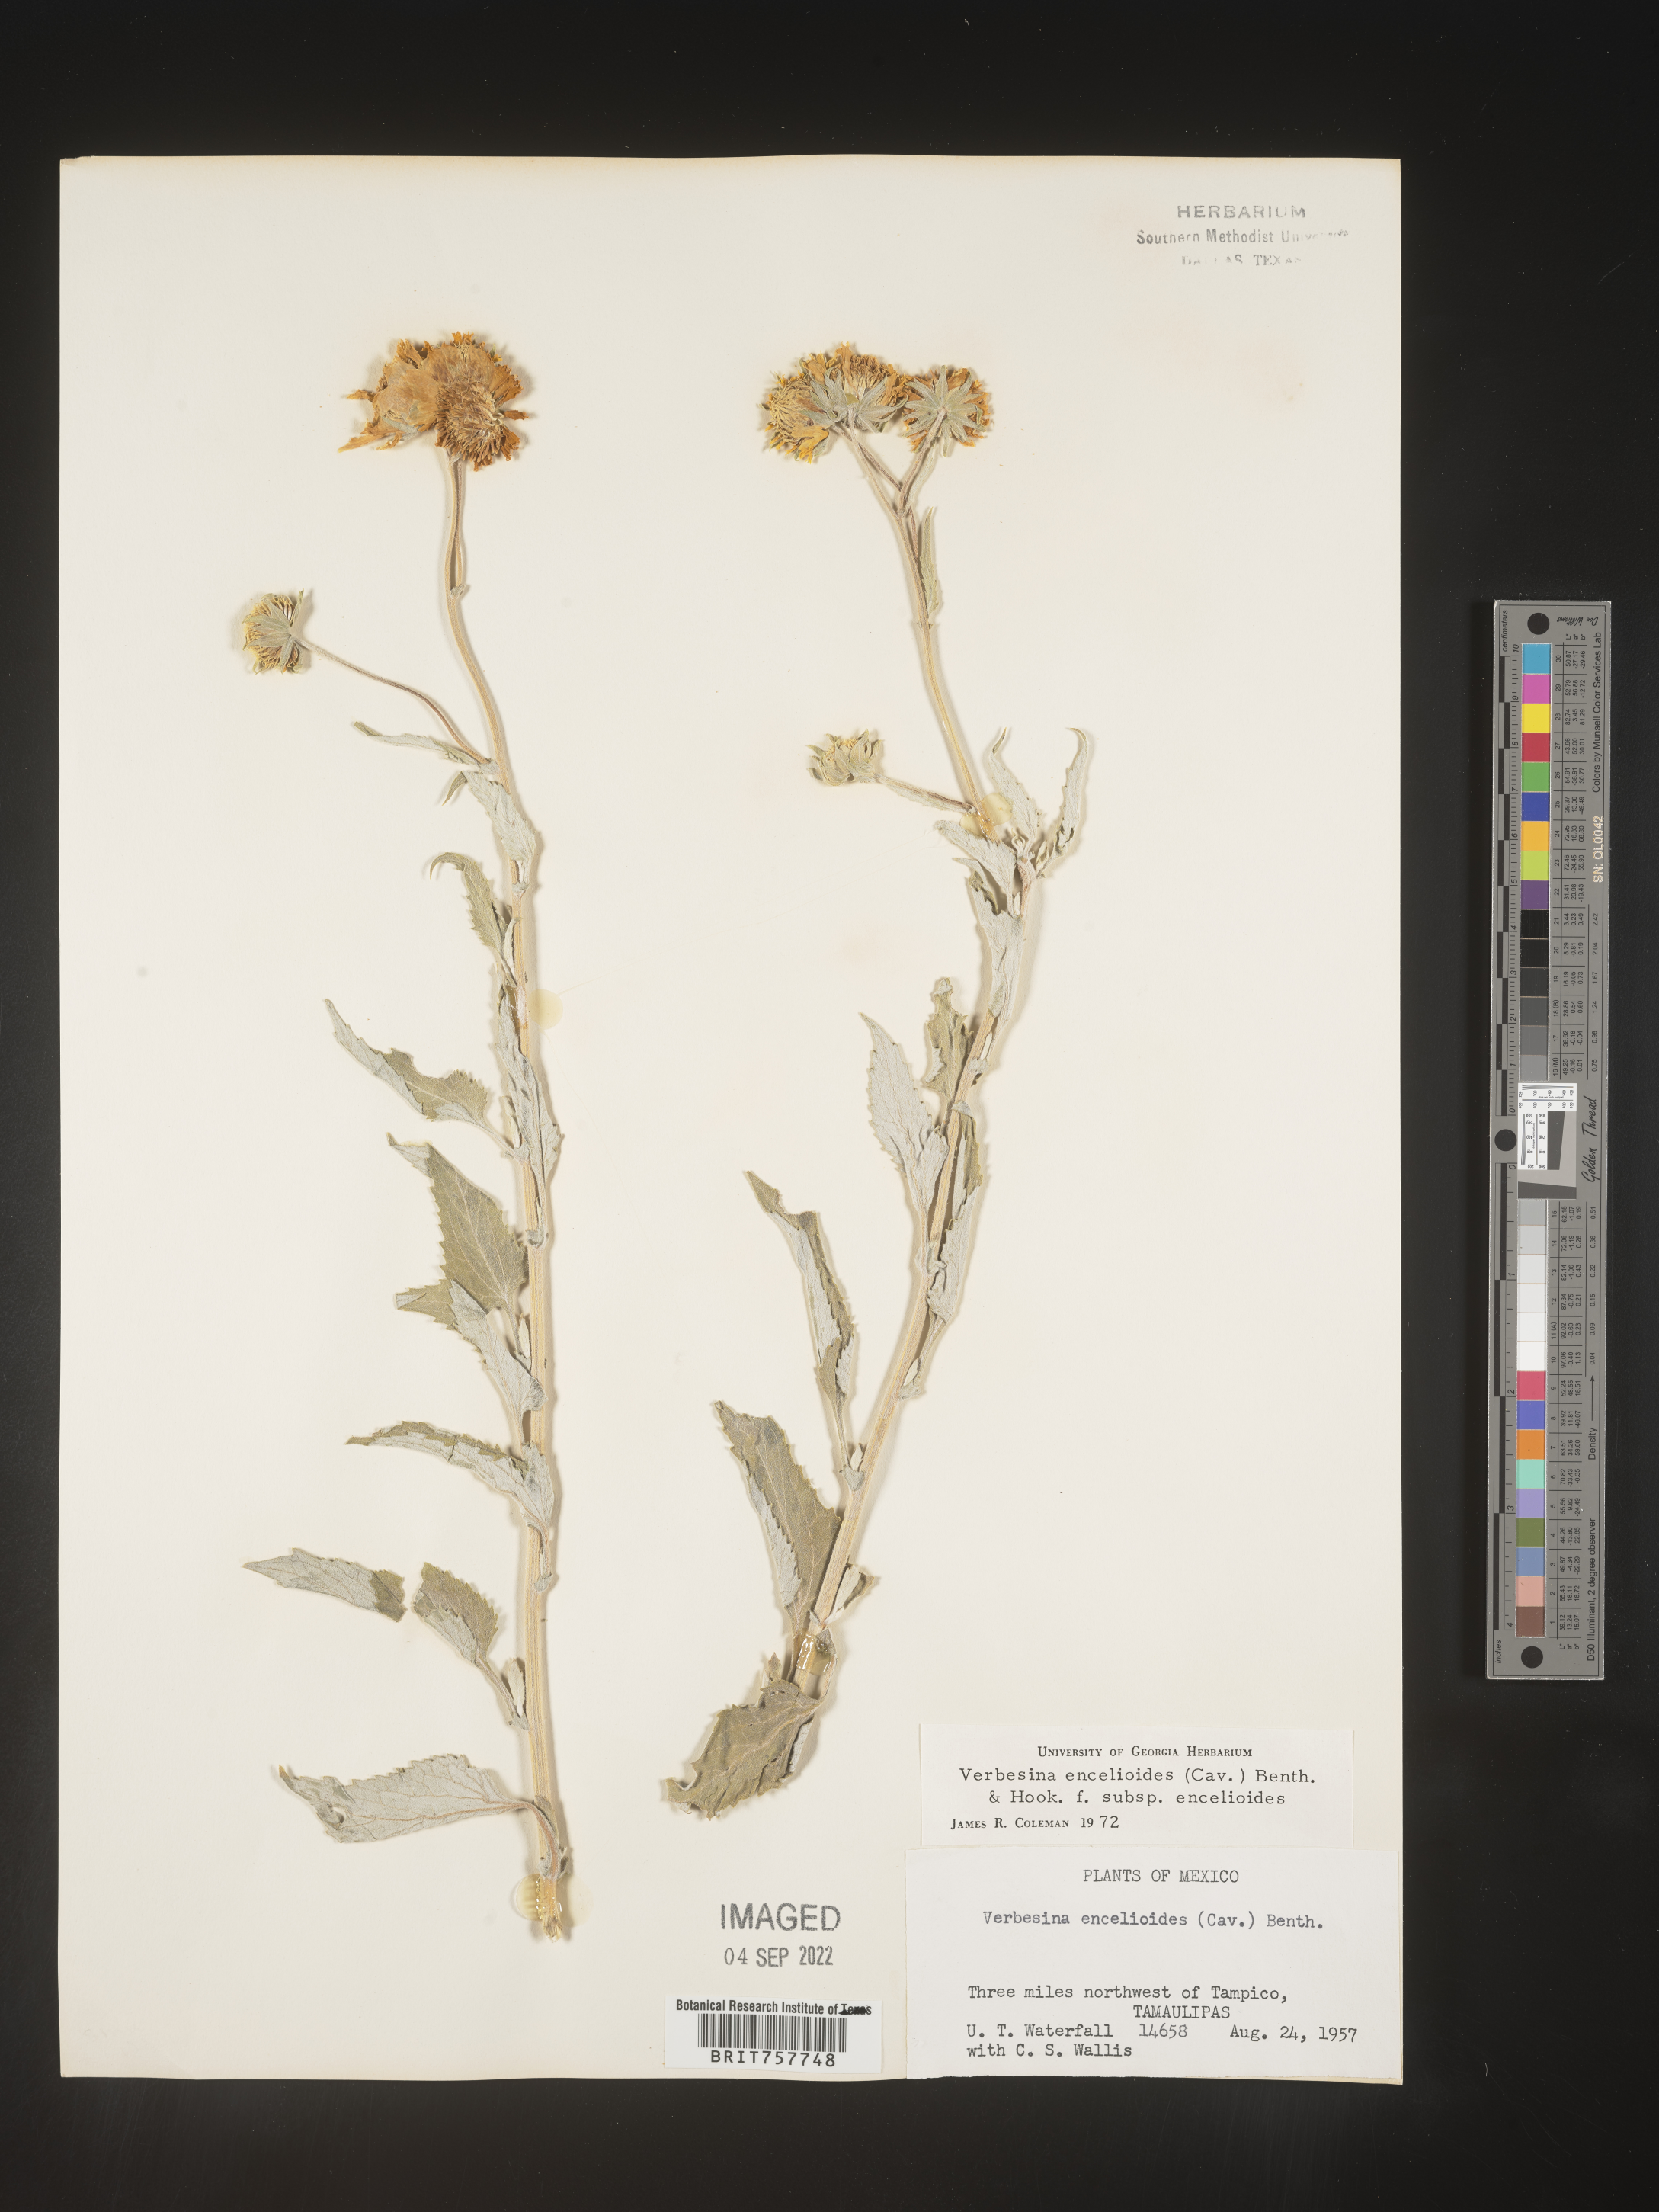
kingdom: Plantae
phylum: Tracheophyta
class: Magnoliopsida
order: Asterales
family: Asteraceae
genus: Verbesina
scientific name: Verbesina
